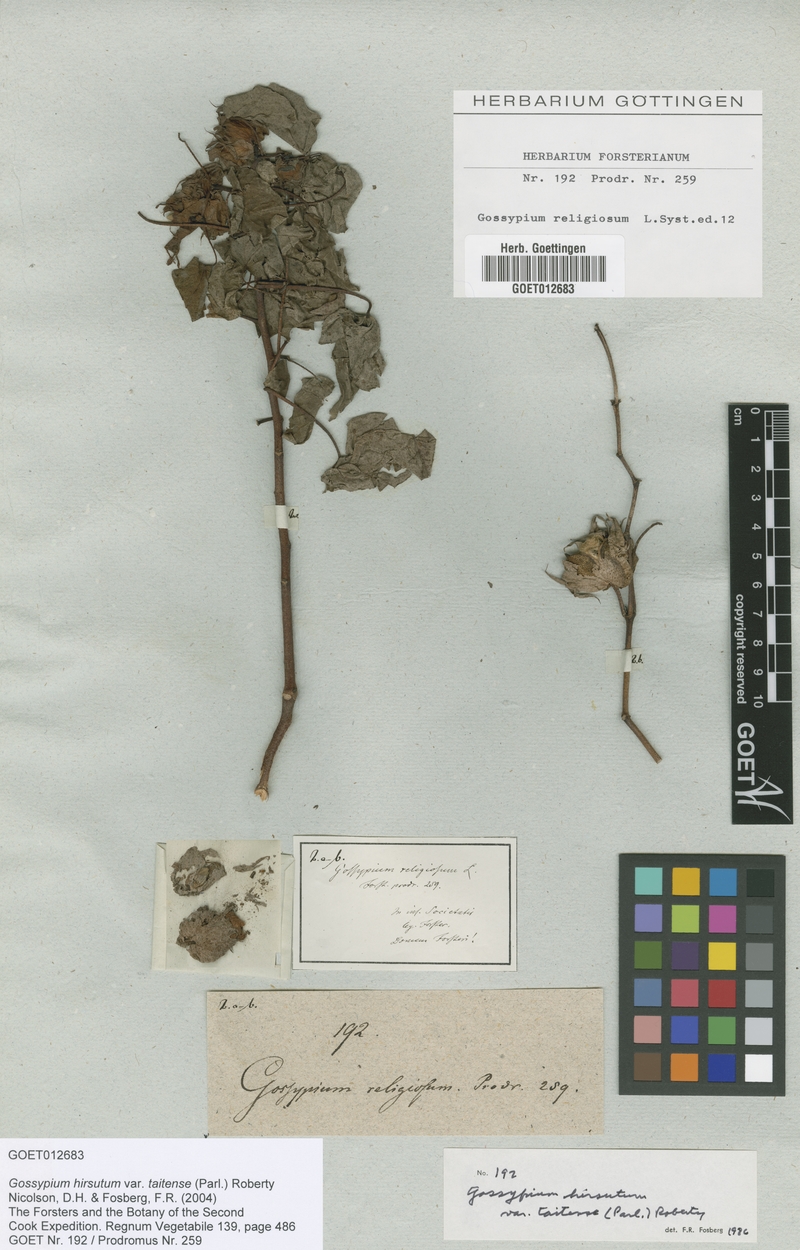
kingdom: Plantae
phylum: Tracheophyta
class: Magnoliopsida
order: Malvales
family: Malvaceae
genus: Gossypium
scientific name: Gossypium hirsutum
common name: Cotton
